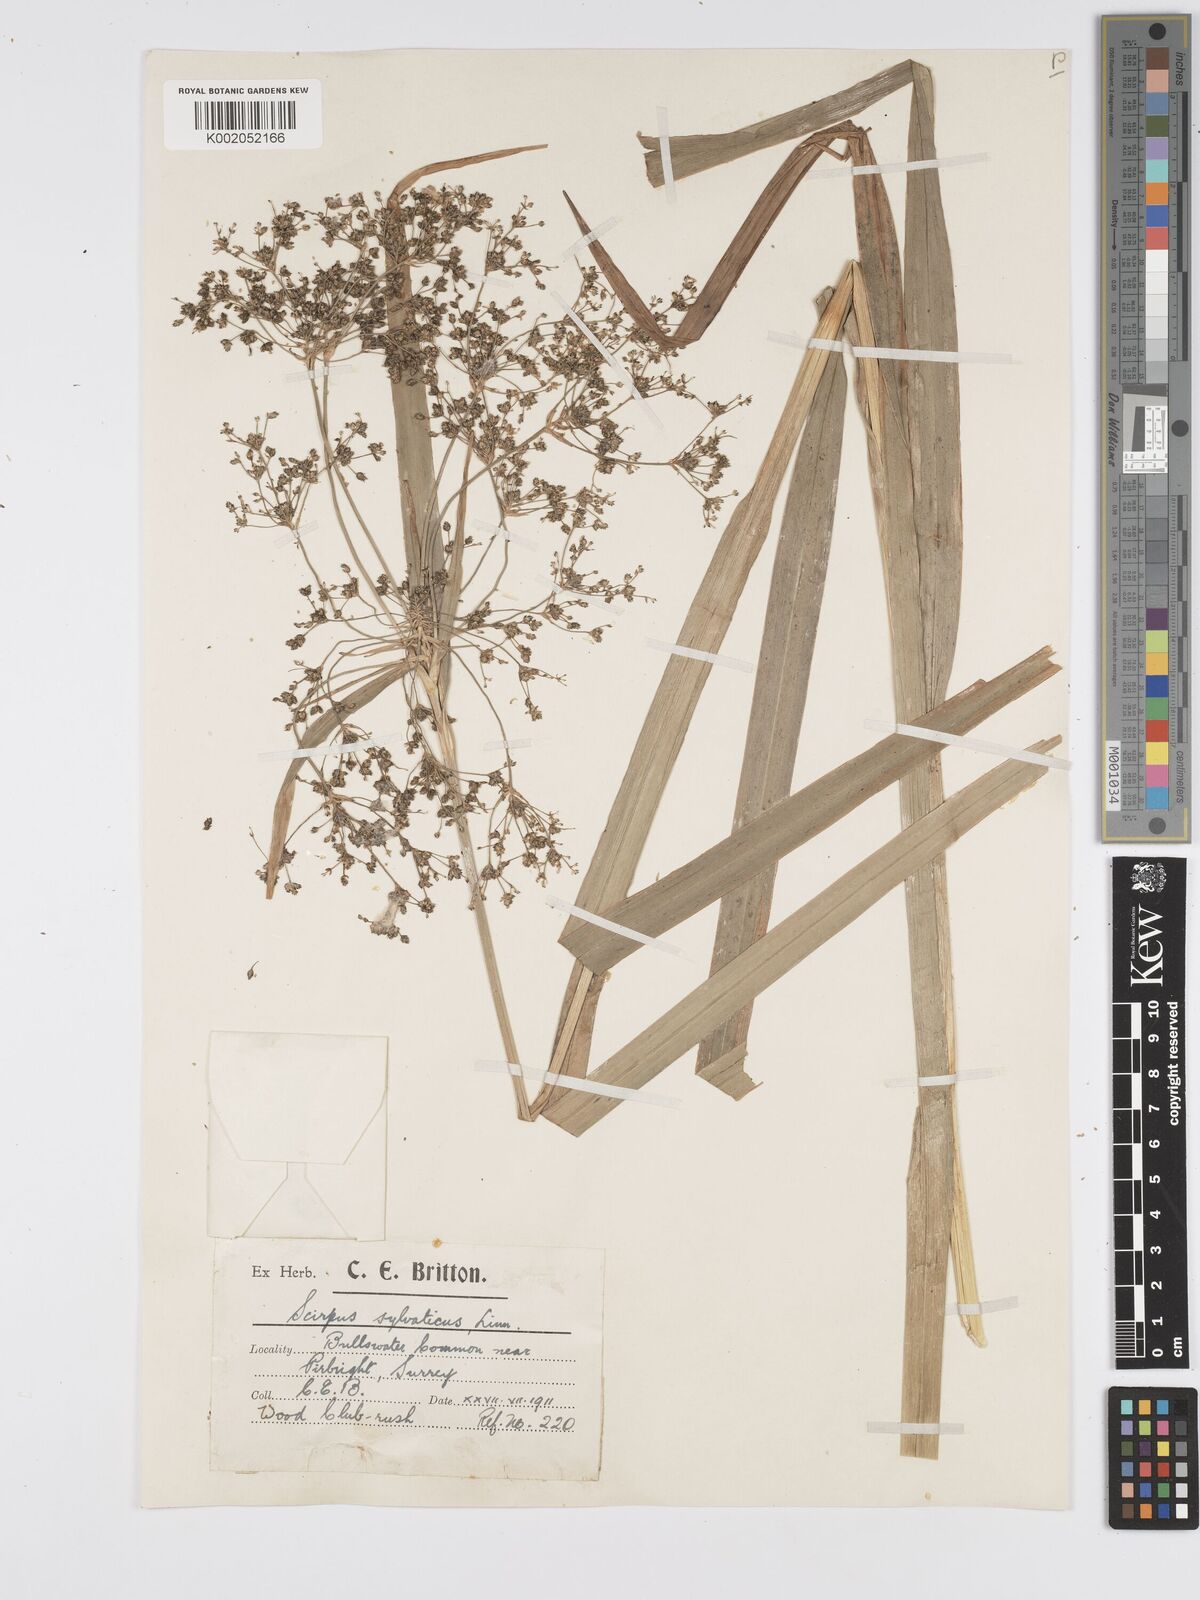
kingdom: Plantae
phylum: Tracheophyta
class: Liliopsida
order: Poales
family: Cyperaceae
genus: Scirpus
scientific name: Scirpus sylvaticus
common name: Wood club-rush
